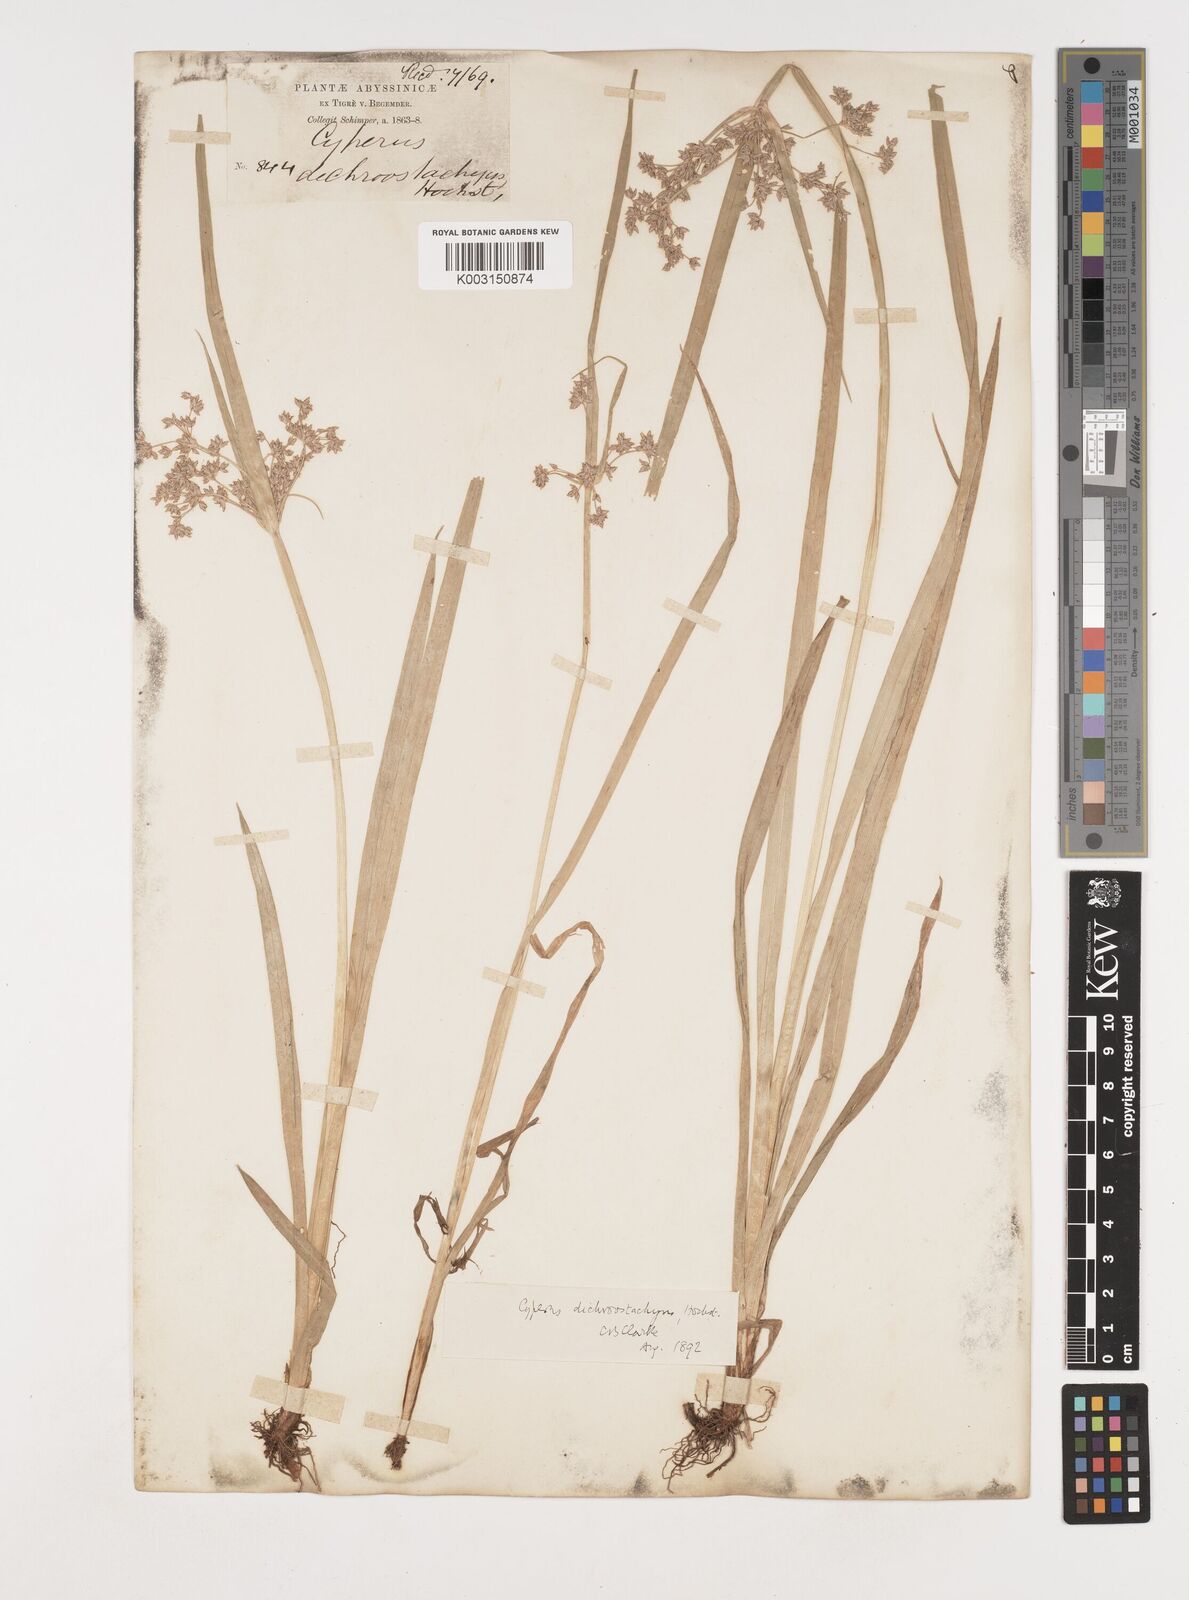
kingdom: Plantae
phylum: Tracheophyta
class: Liliopsida
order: Poales
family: Cyperaceae
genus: Cyperus
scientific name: Cyperus dichrostachyus
